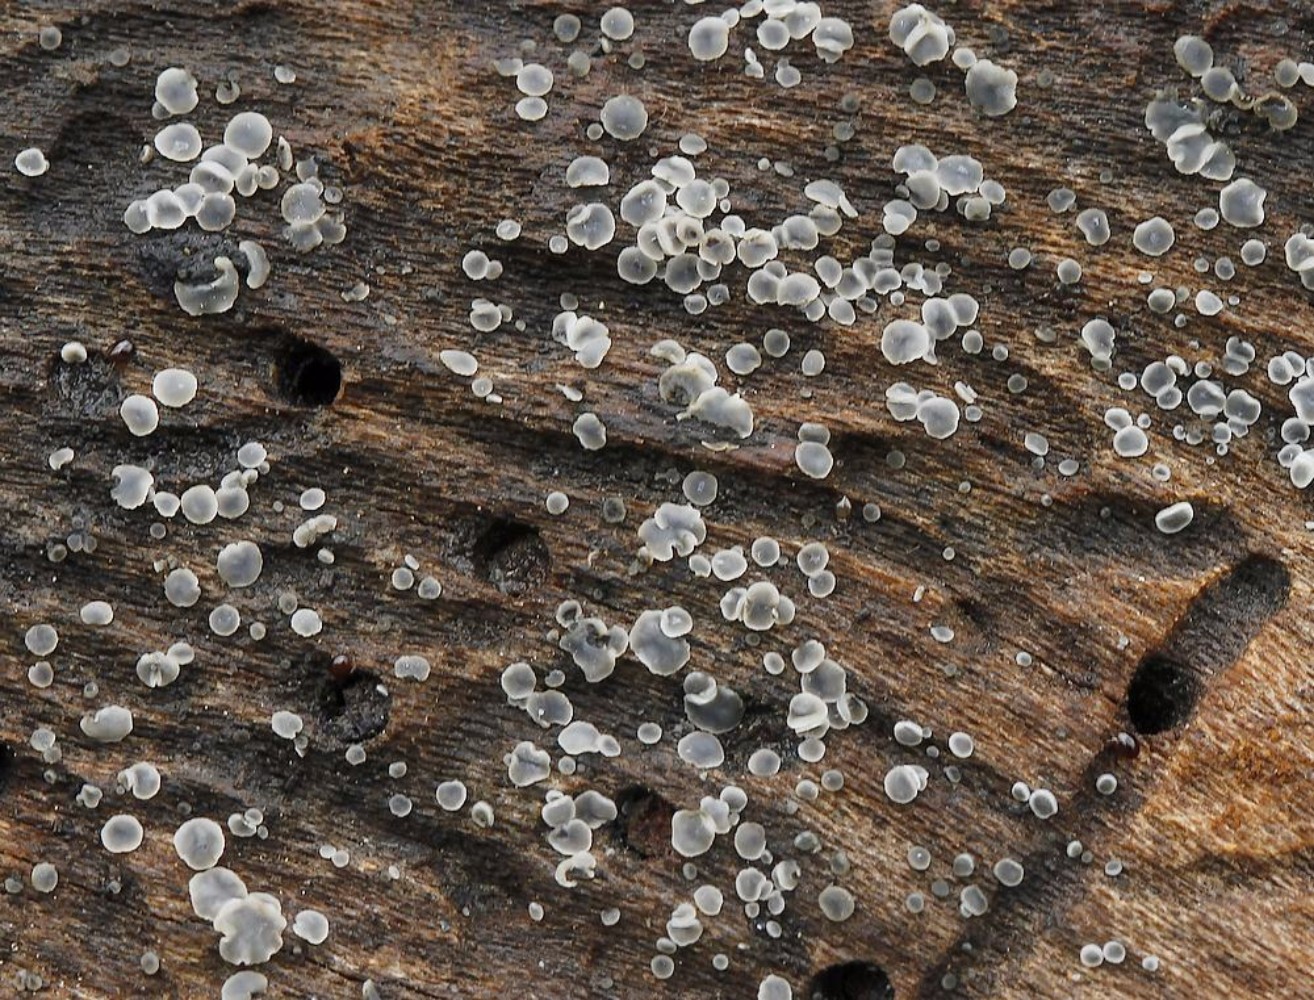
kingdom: Fungi
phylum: Ascomycota
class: Leotiomycetes
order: Helotiales
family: Mollisiaceae
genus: Mollisia
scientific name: Mollisia cinerea
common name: almindelig gråskive
